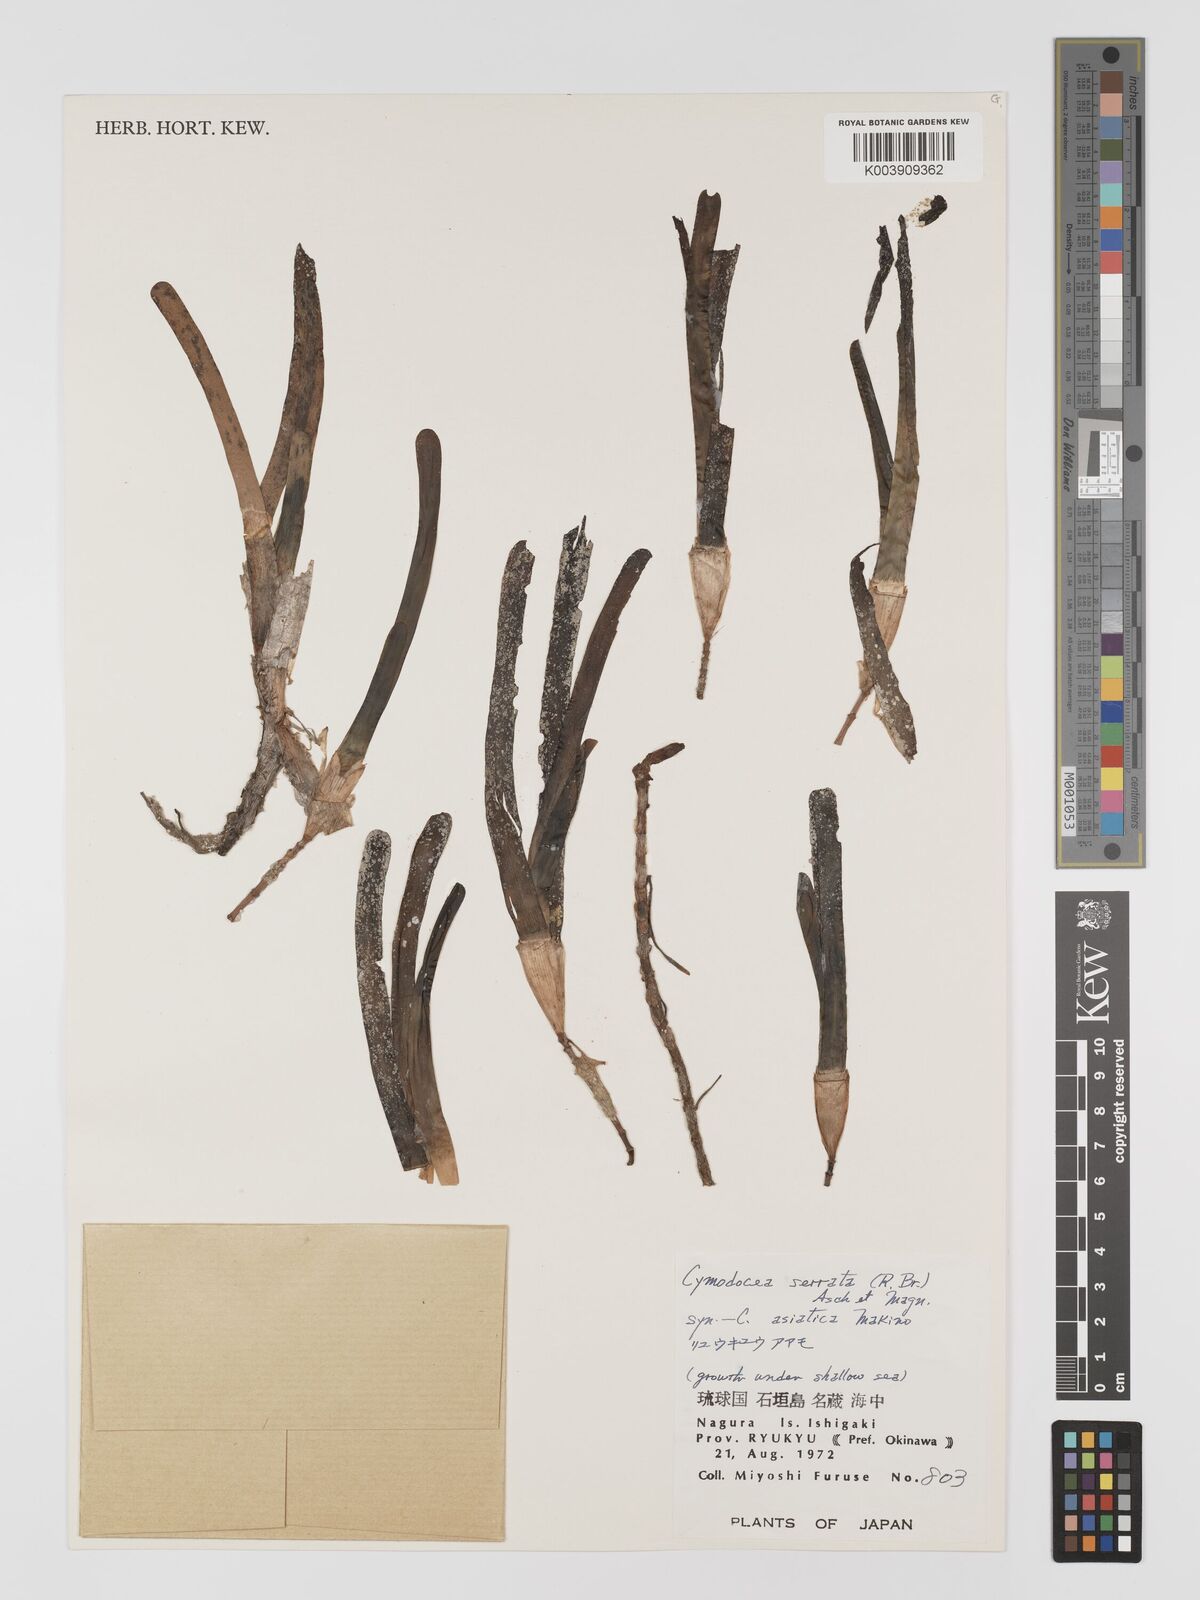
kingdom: Plantae
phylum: Tracheophyta
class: Liliopsida
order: Alismatales
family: Cymodoceaceae
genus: Oceana
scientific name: Oceana serrulata
